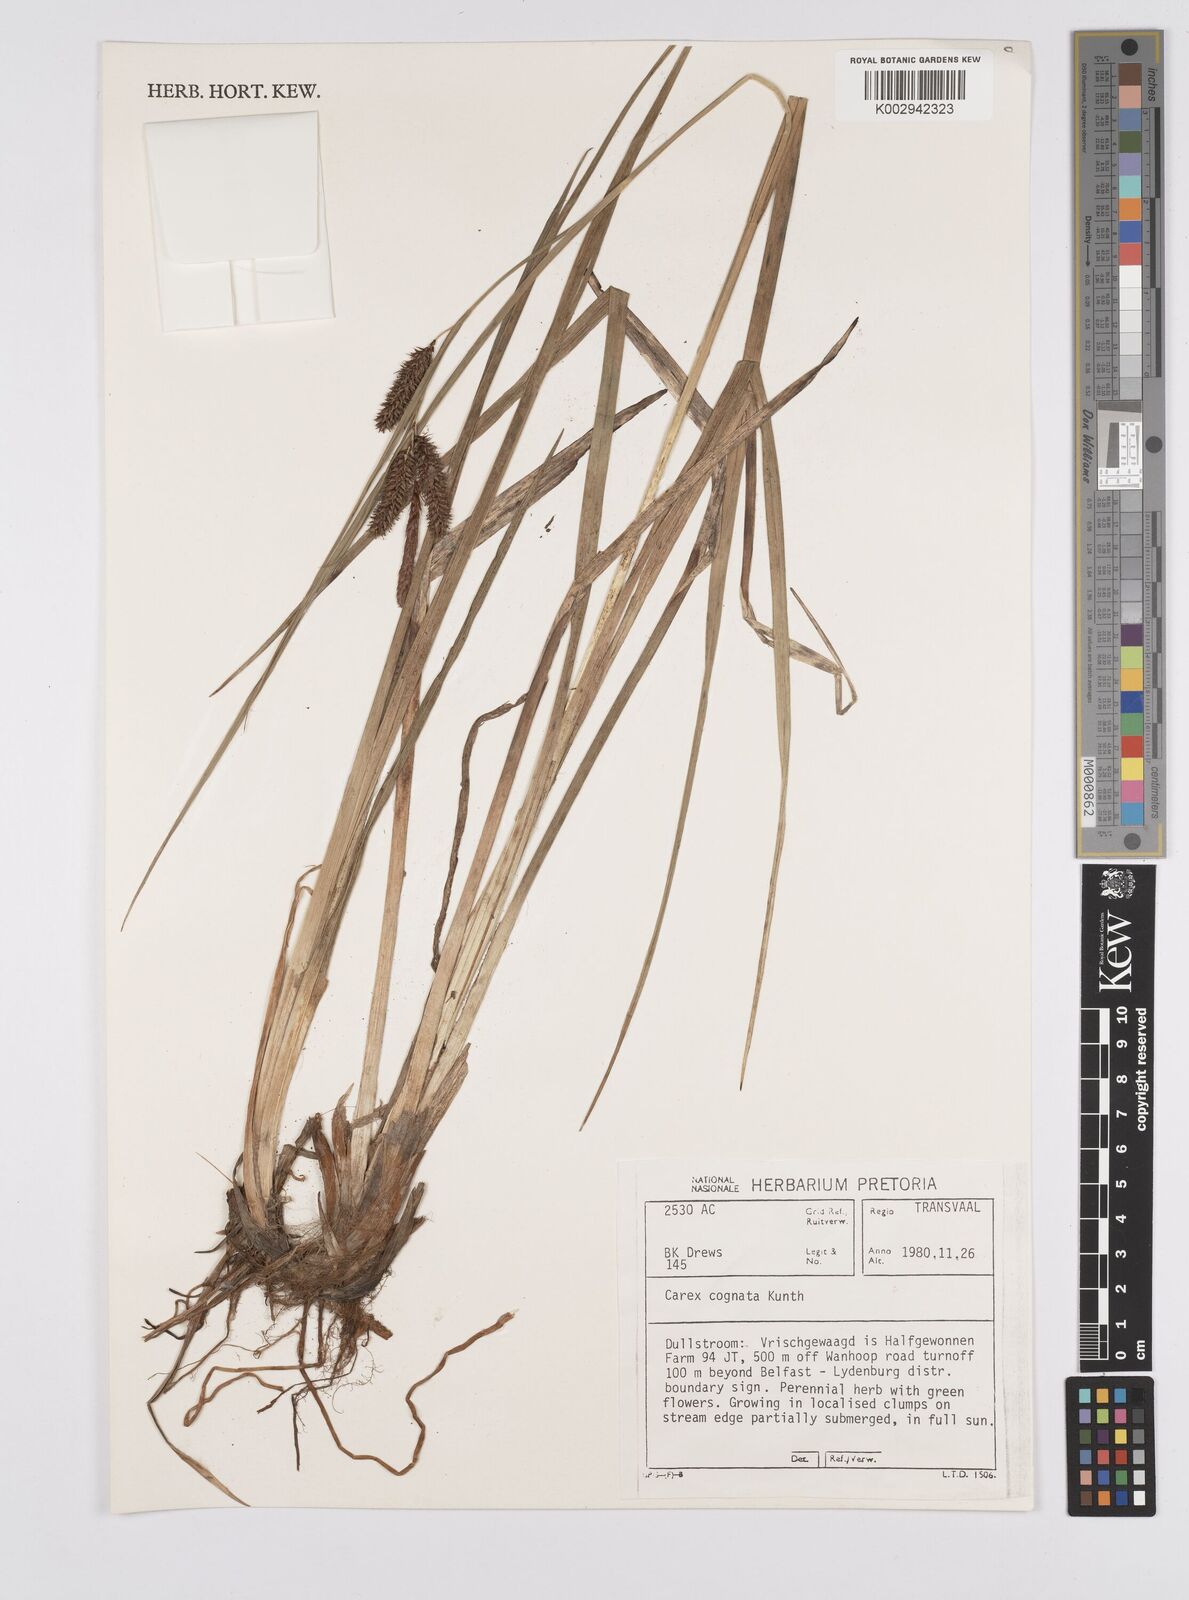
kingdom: Plantae
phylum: Tracheophyta
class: Liliopsida
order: Poales
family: Cyperaceae
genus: Carex
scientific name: Carex wahuensis
